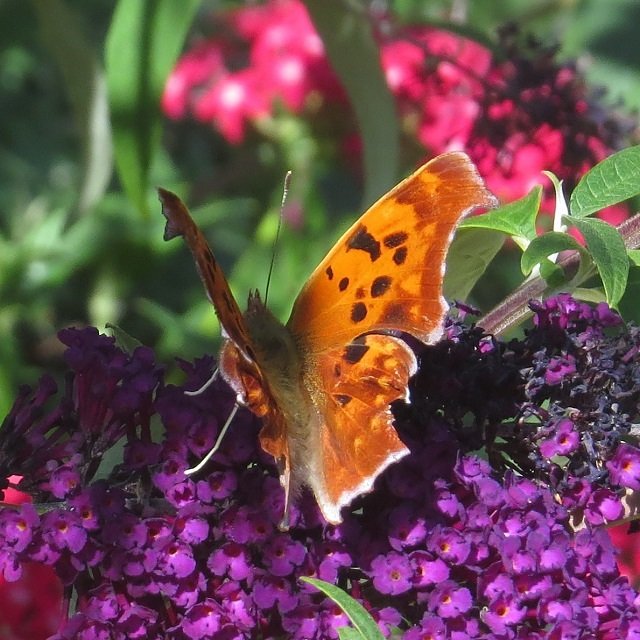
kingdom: Animalia
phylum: Arthropoda
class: Insecta
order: Lepidoptera
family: Nymphalidae
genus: Polygonia
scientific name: Polygonia interrogationis
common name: Question Mark
